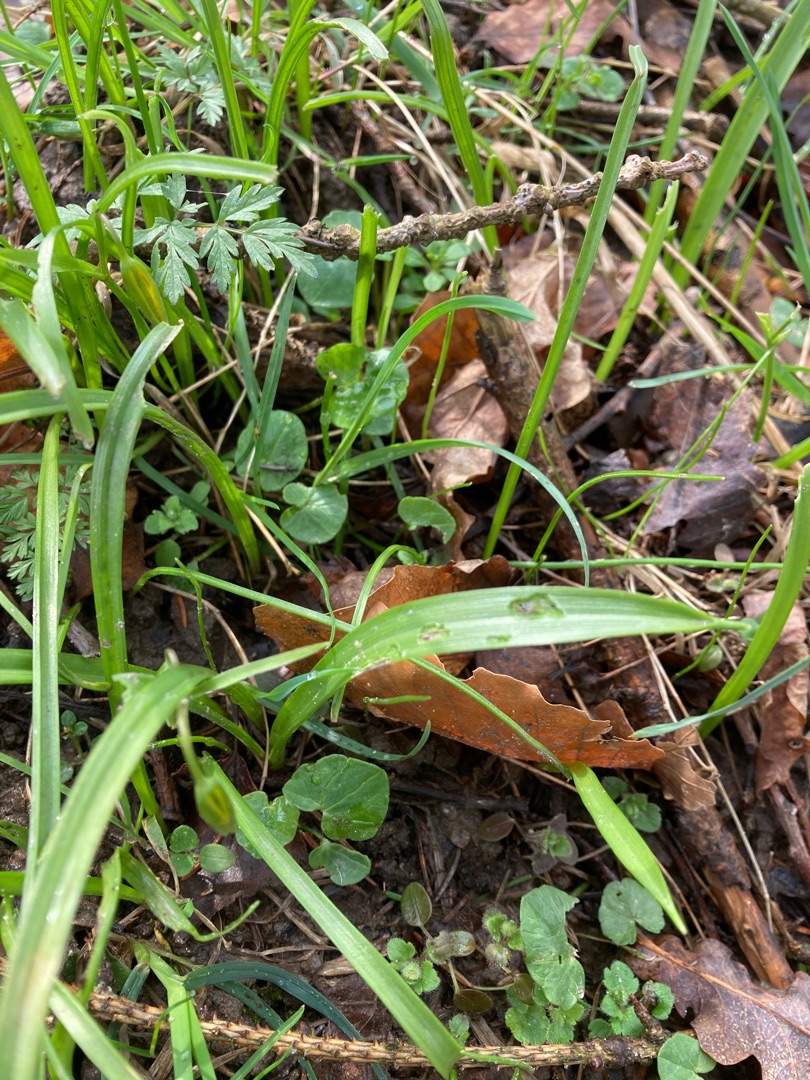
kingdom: Plantae
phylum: Tracheophyta
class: Liliopsida
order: Liliales
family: Liliaceae
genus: Gagea
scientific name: Gagea lutea
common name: Almindelig guldstjerne
